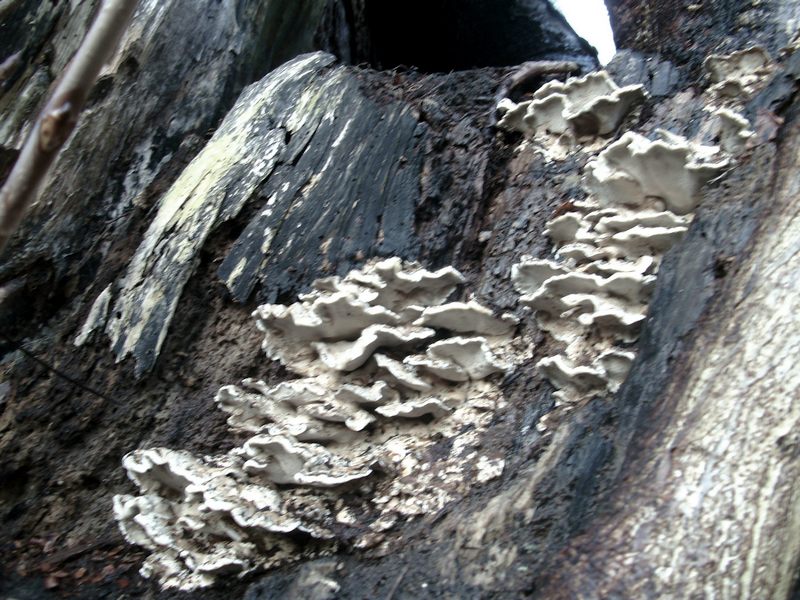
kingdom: Fungi
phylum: Basidiomycota
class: Agaricomycetes
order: Polyporales
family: Phanerochaetaceae
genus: Bjerkandera
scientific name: Bjerkandera fumosa
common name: grågul sodporesvamp
